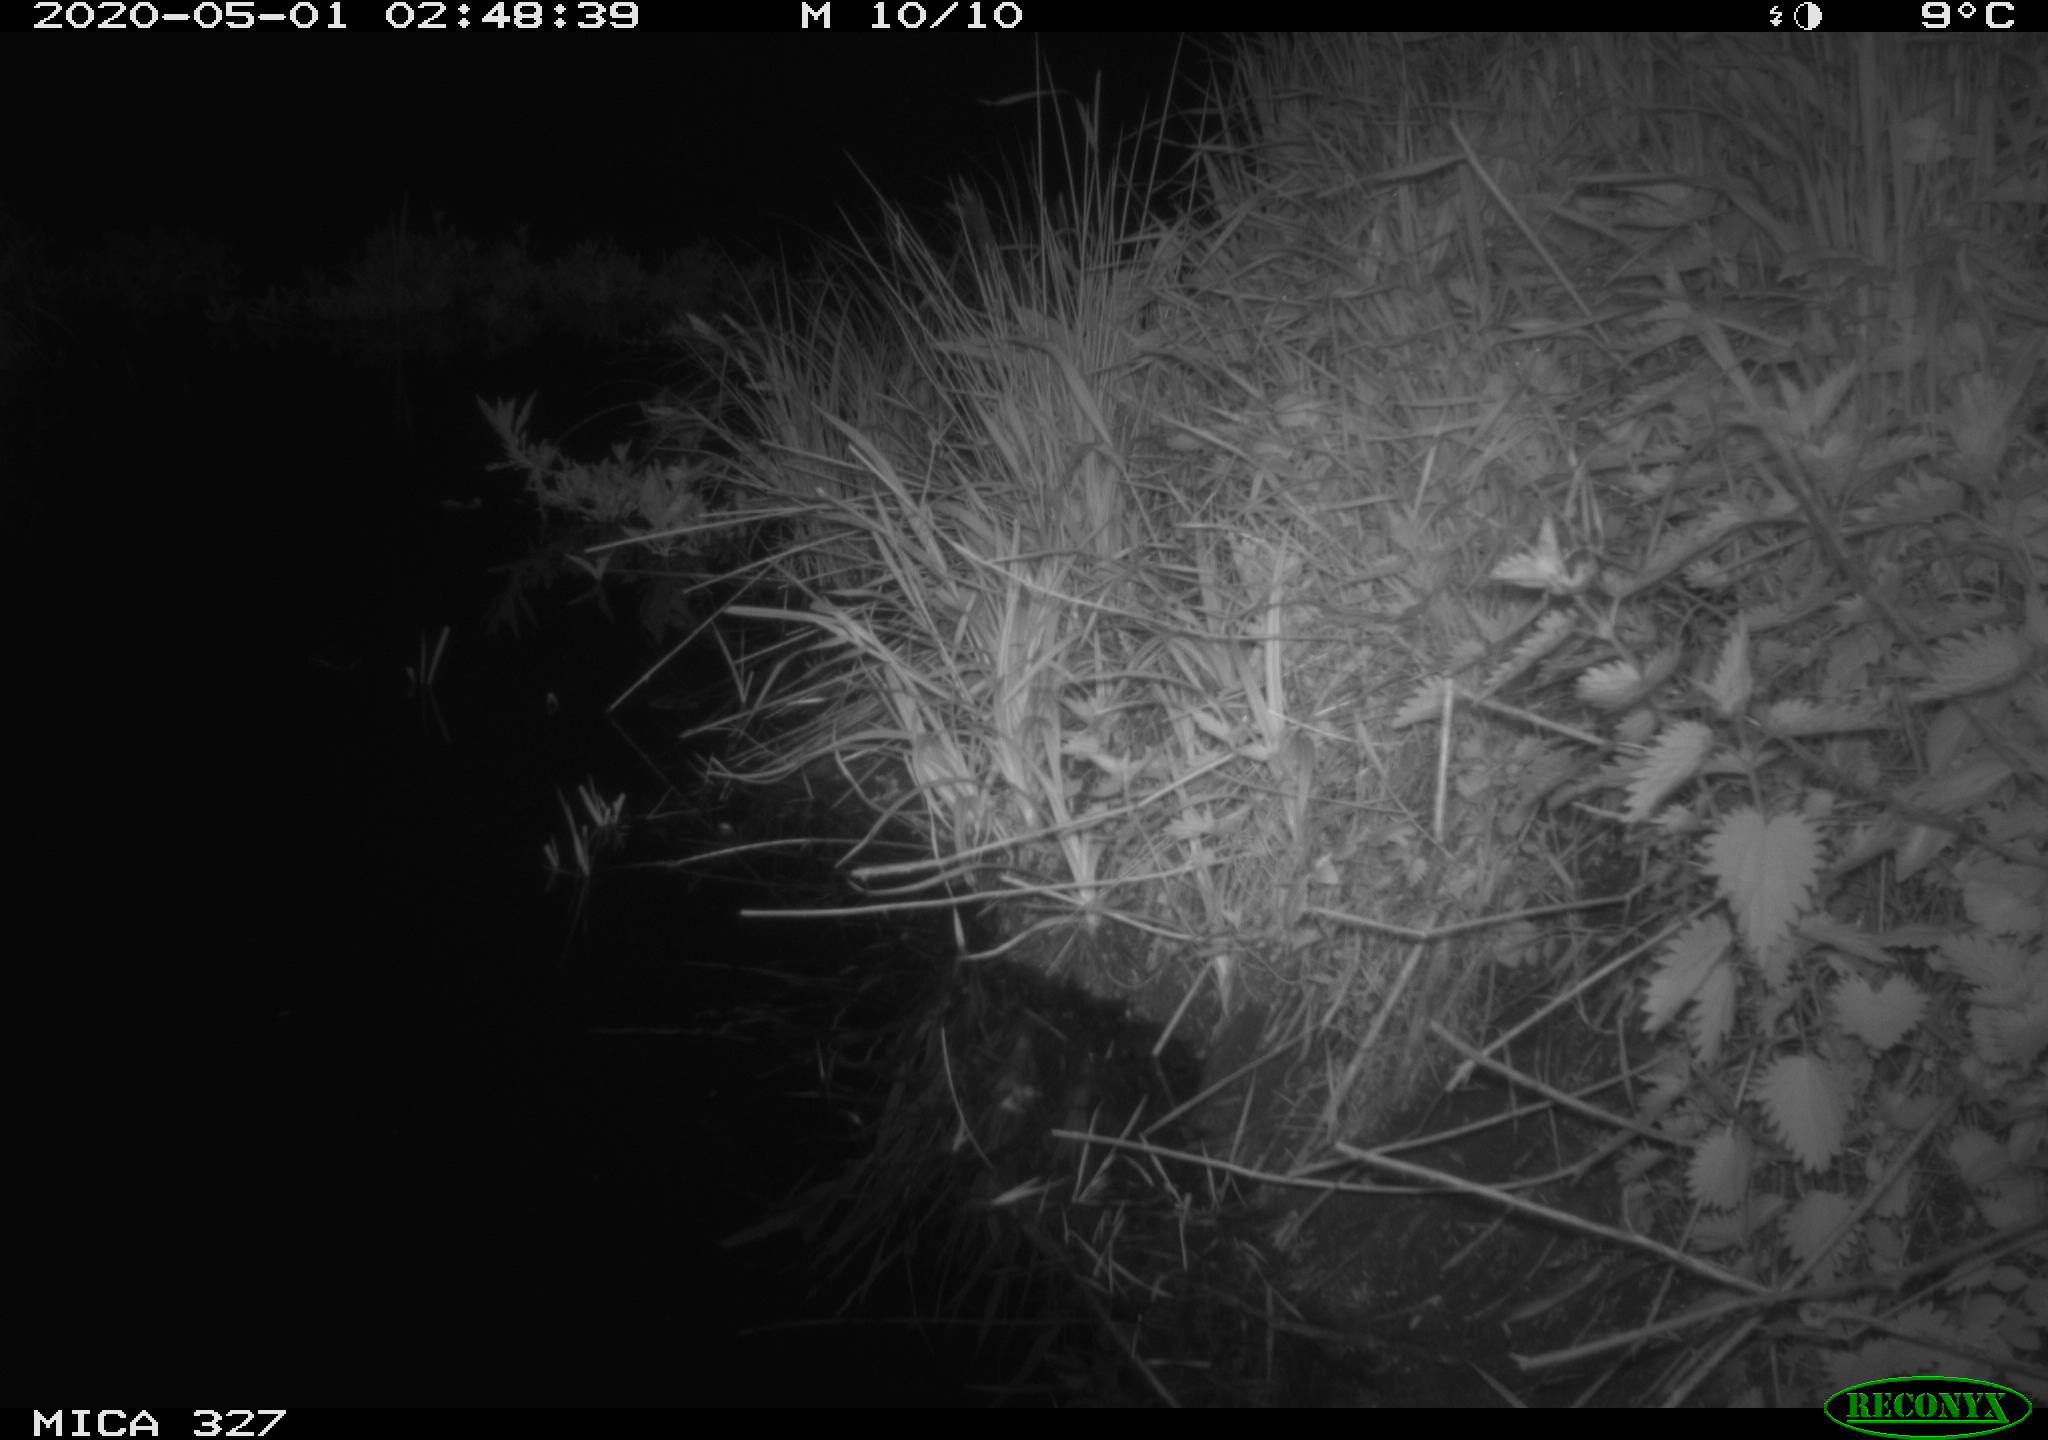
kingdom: Animalia
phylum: Chordata
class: Mammalia
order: Rodentia
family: Muridae
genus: Rattus
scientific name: Rattus norvegicus
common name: Brown rat
